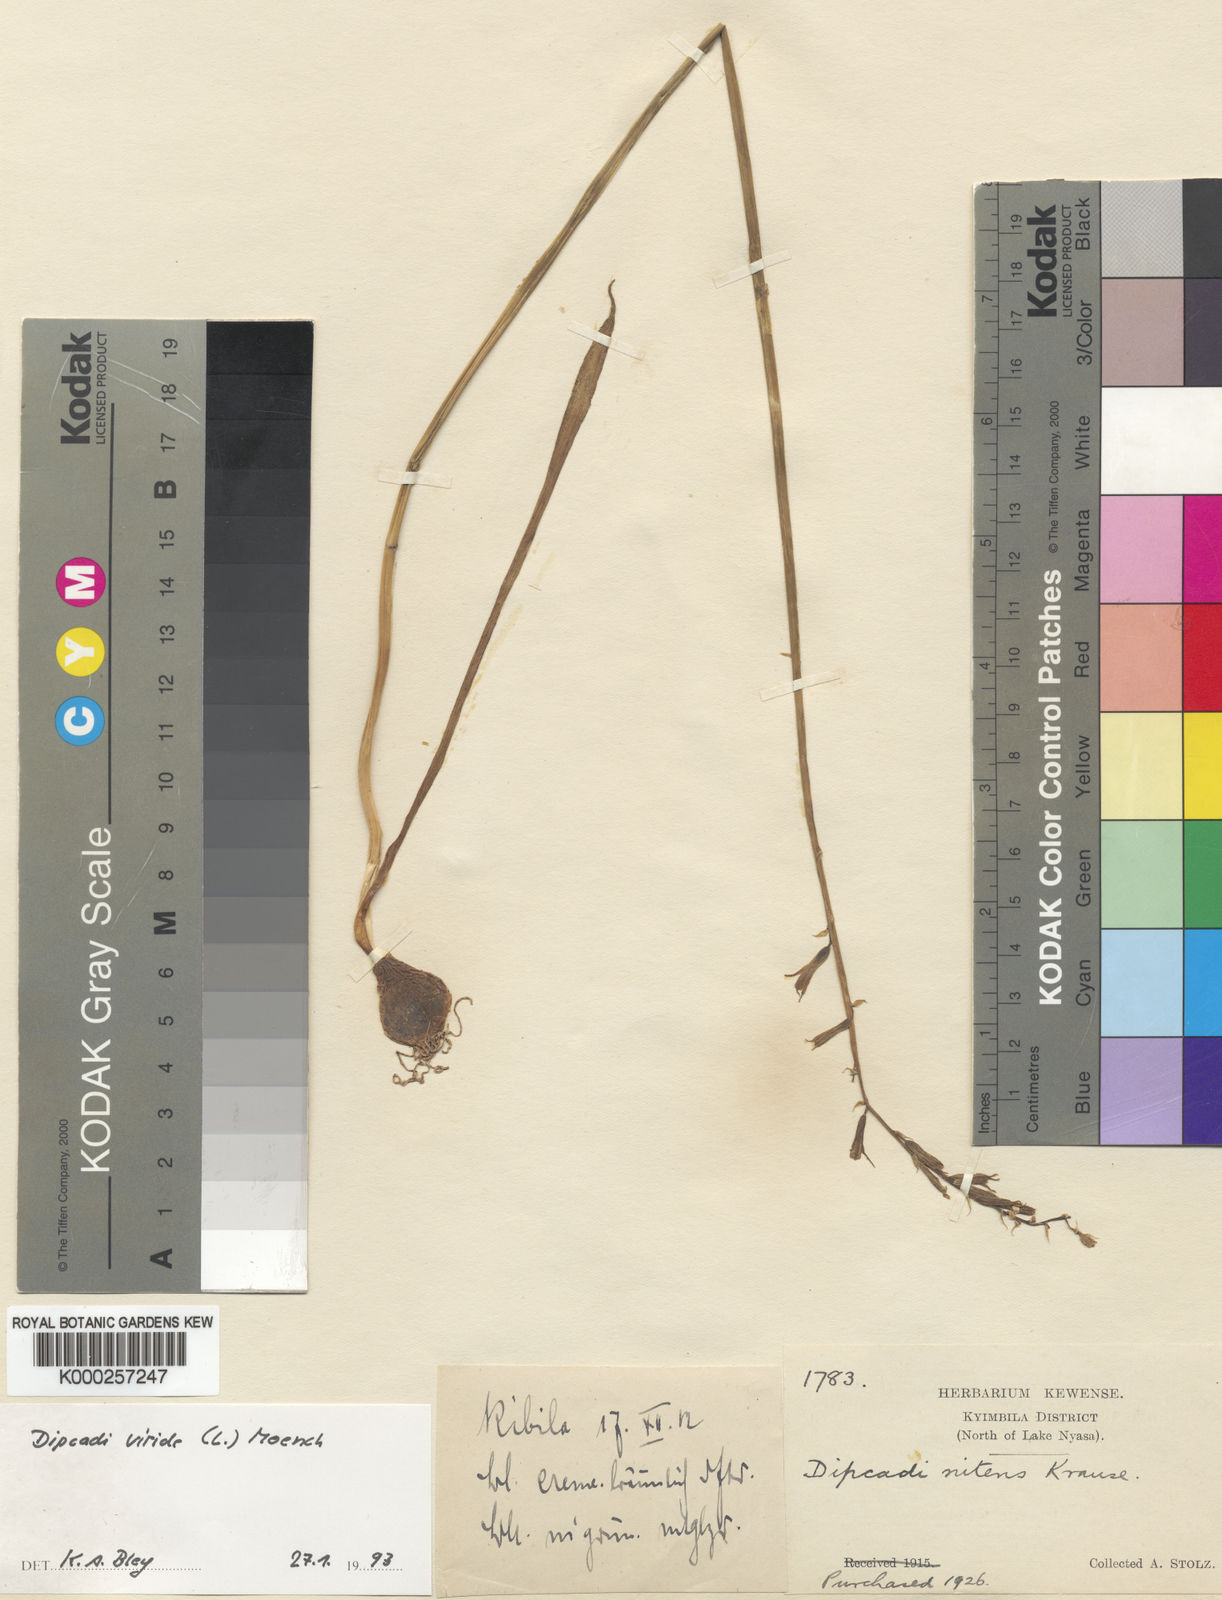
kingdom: Plantae
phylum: Tracheophyta
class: Liliopsida
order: Asparagales
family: Asparagaceae
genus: Dipcadi
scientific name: Dipcadi viride
